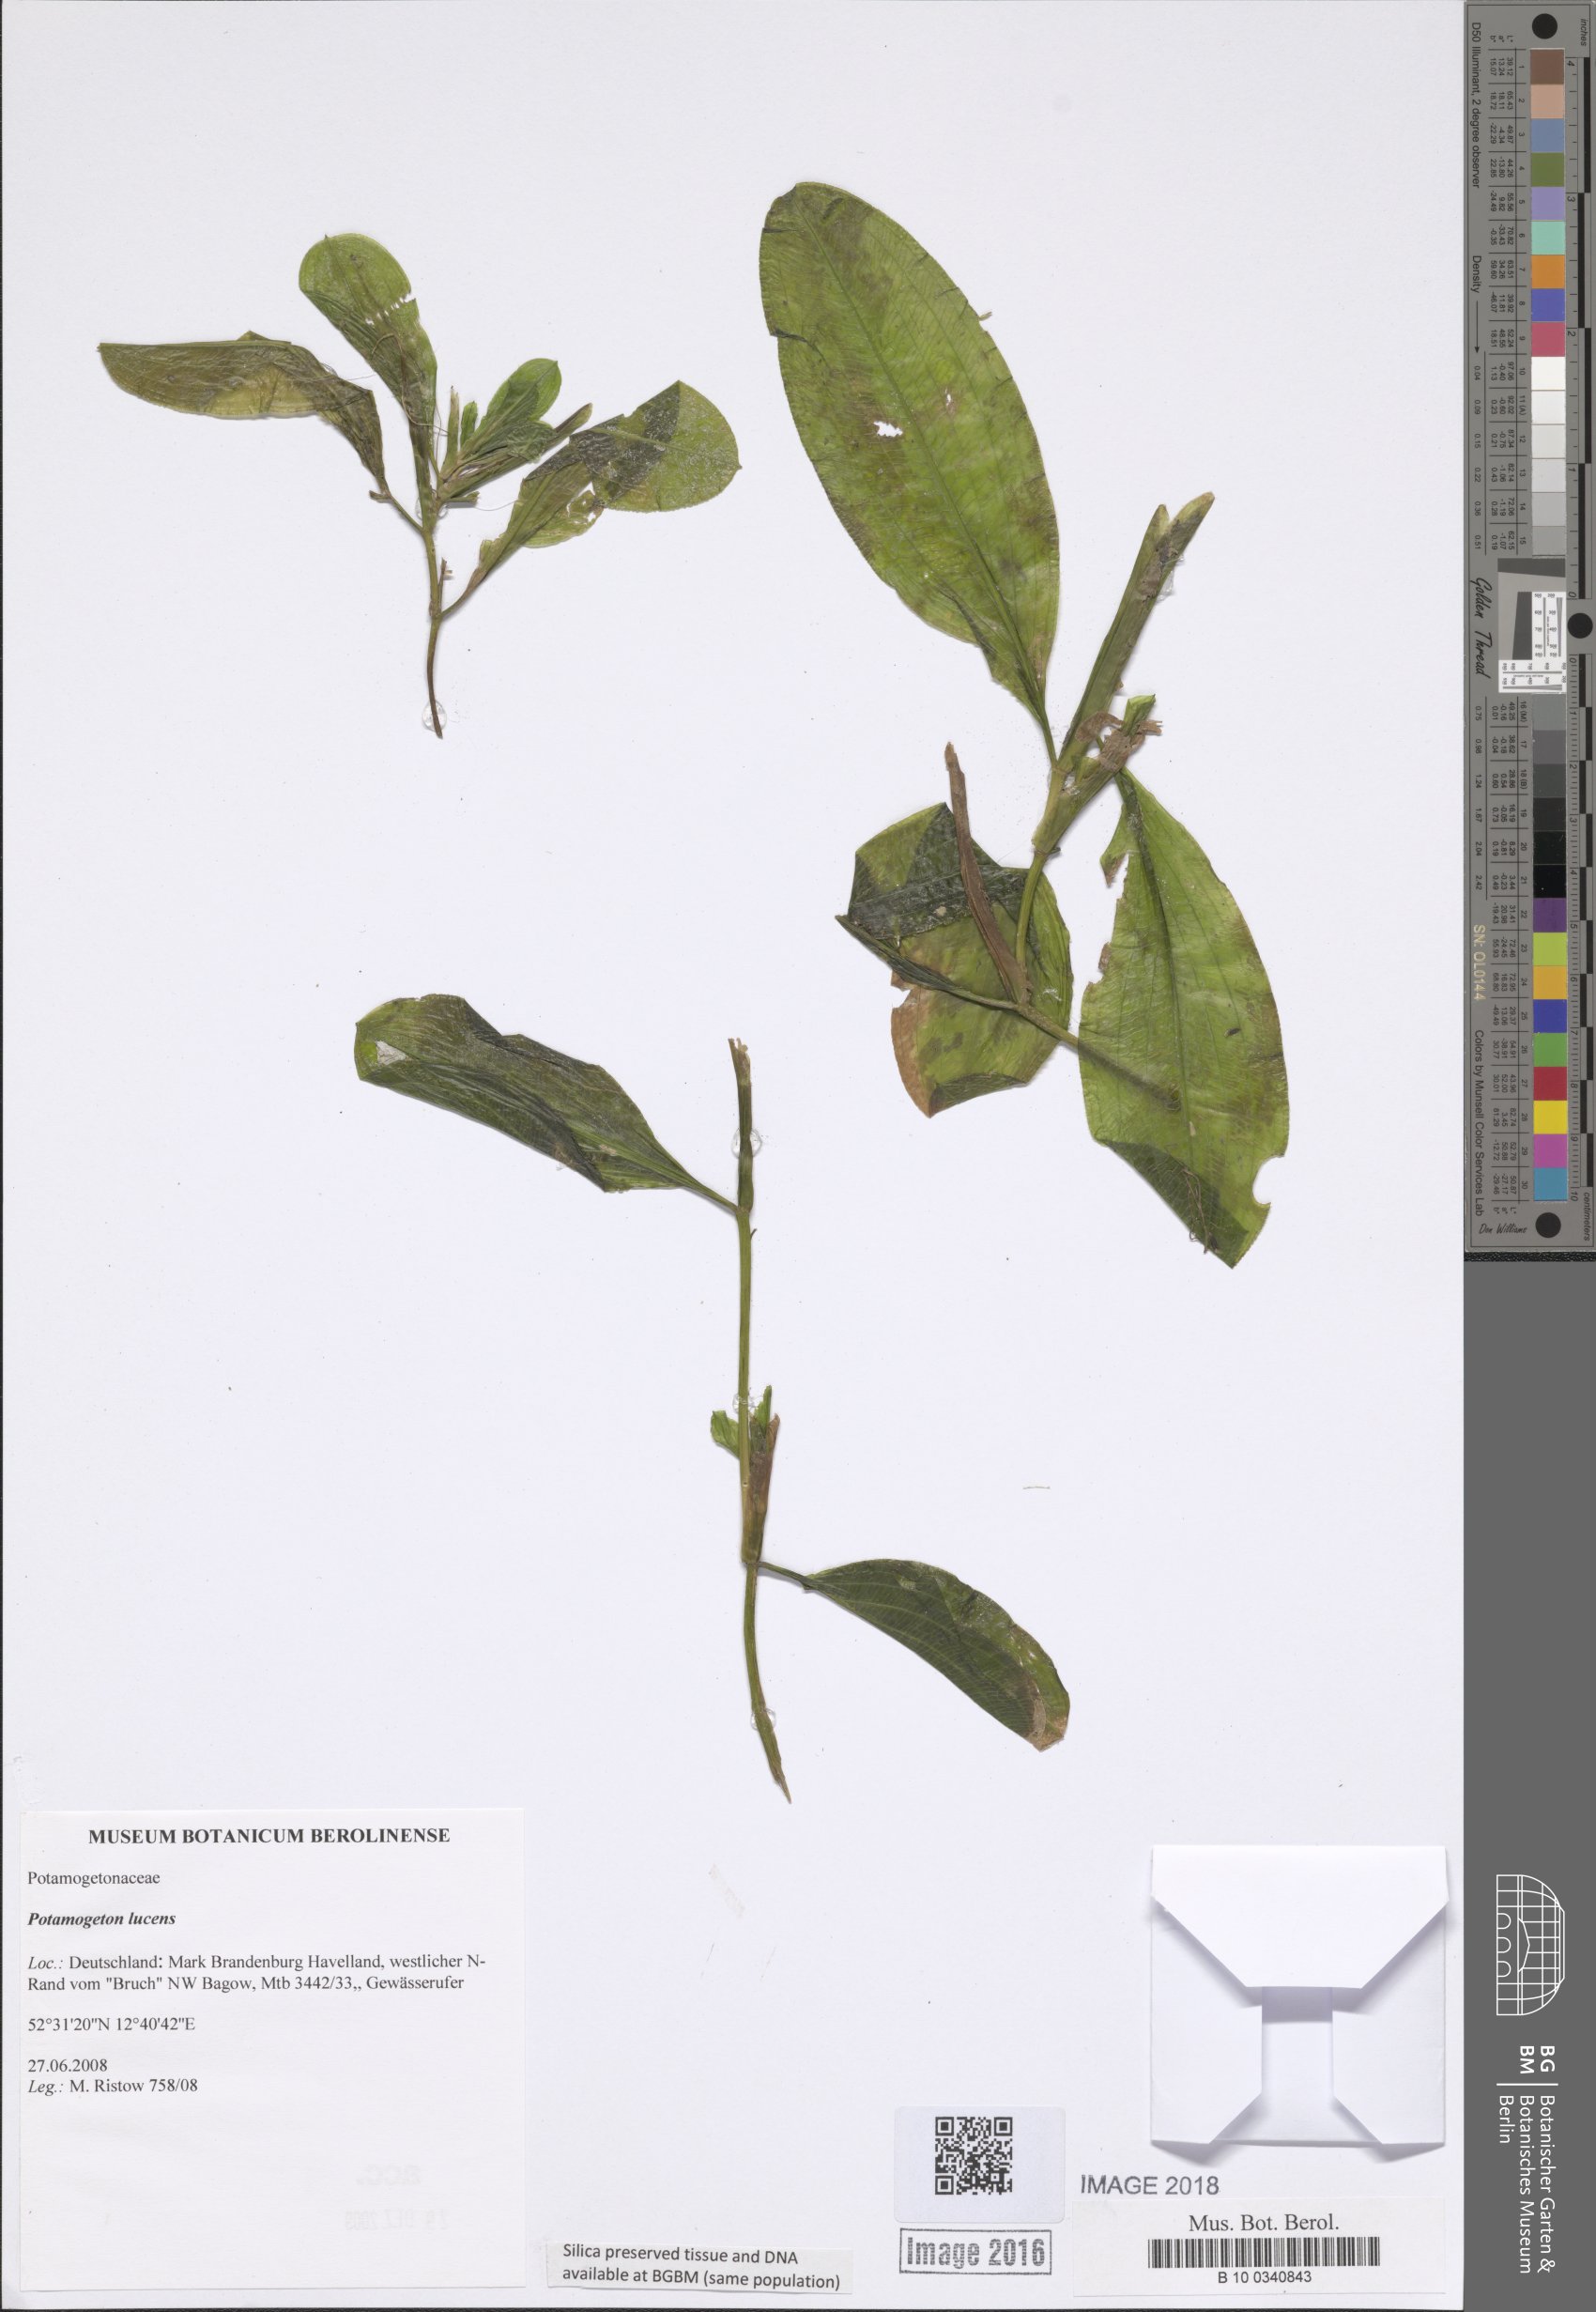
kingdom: Plantae
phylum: Tracheophyta
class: Liliopsida
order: Alismatales
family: Potamogetonaceae
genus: Potamogeton
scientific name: Potamogeton lucens
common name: Shining pondweed
